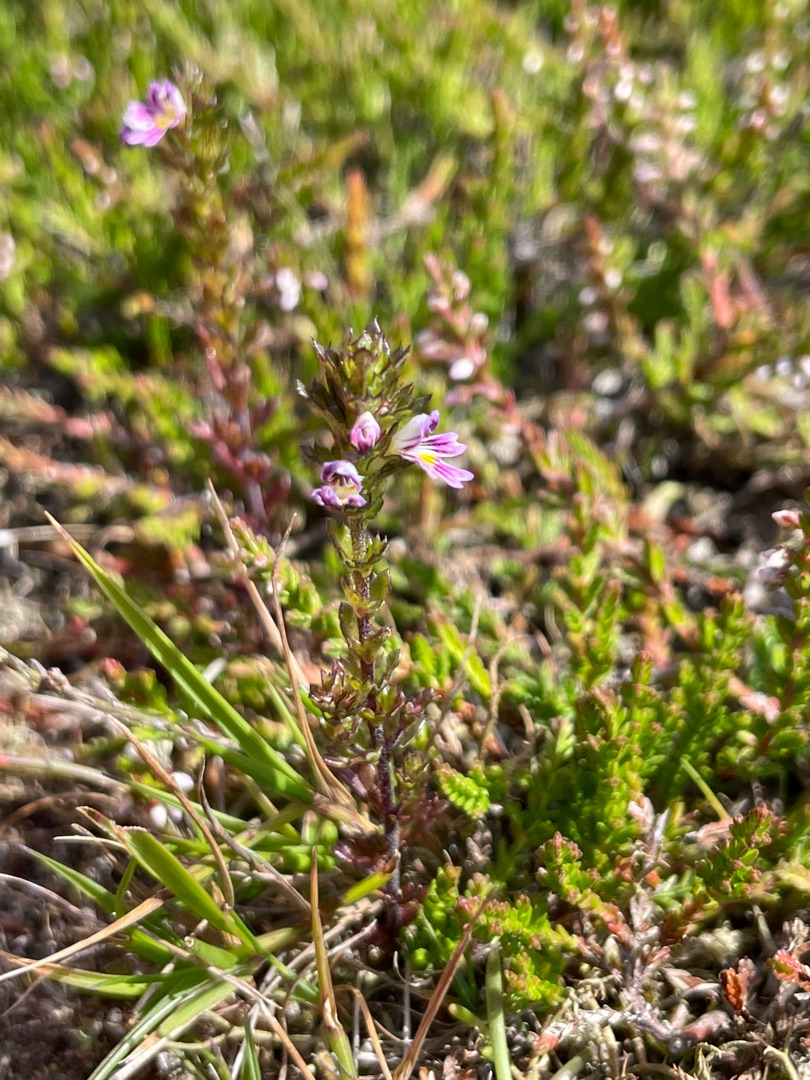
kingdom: Plantae
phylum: Tracheophyta
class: Magnoliopsida
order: Lamiales
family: Orobanchaceae
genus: Euphrasia
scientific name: Euphrasia micrantha
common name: Lyng-øjentrøst
